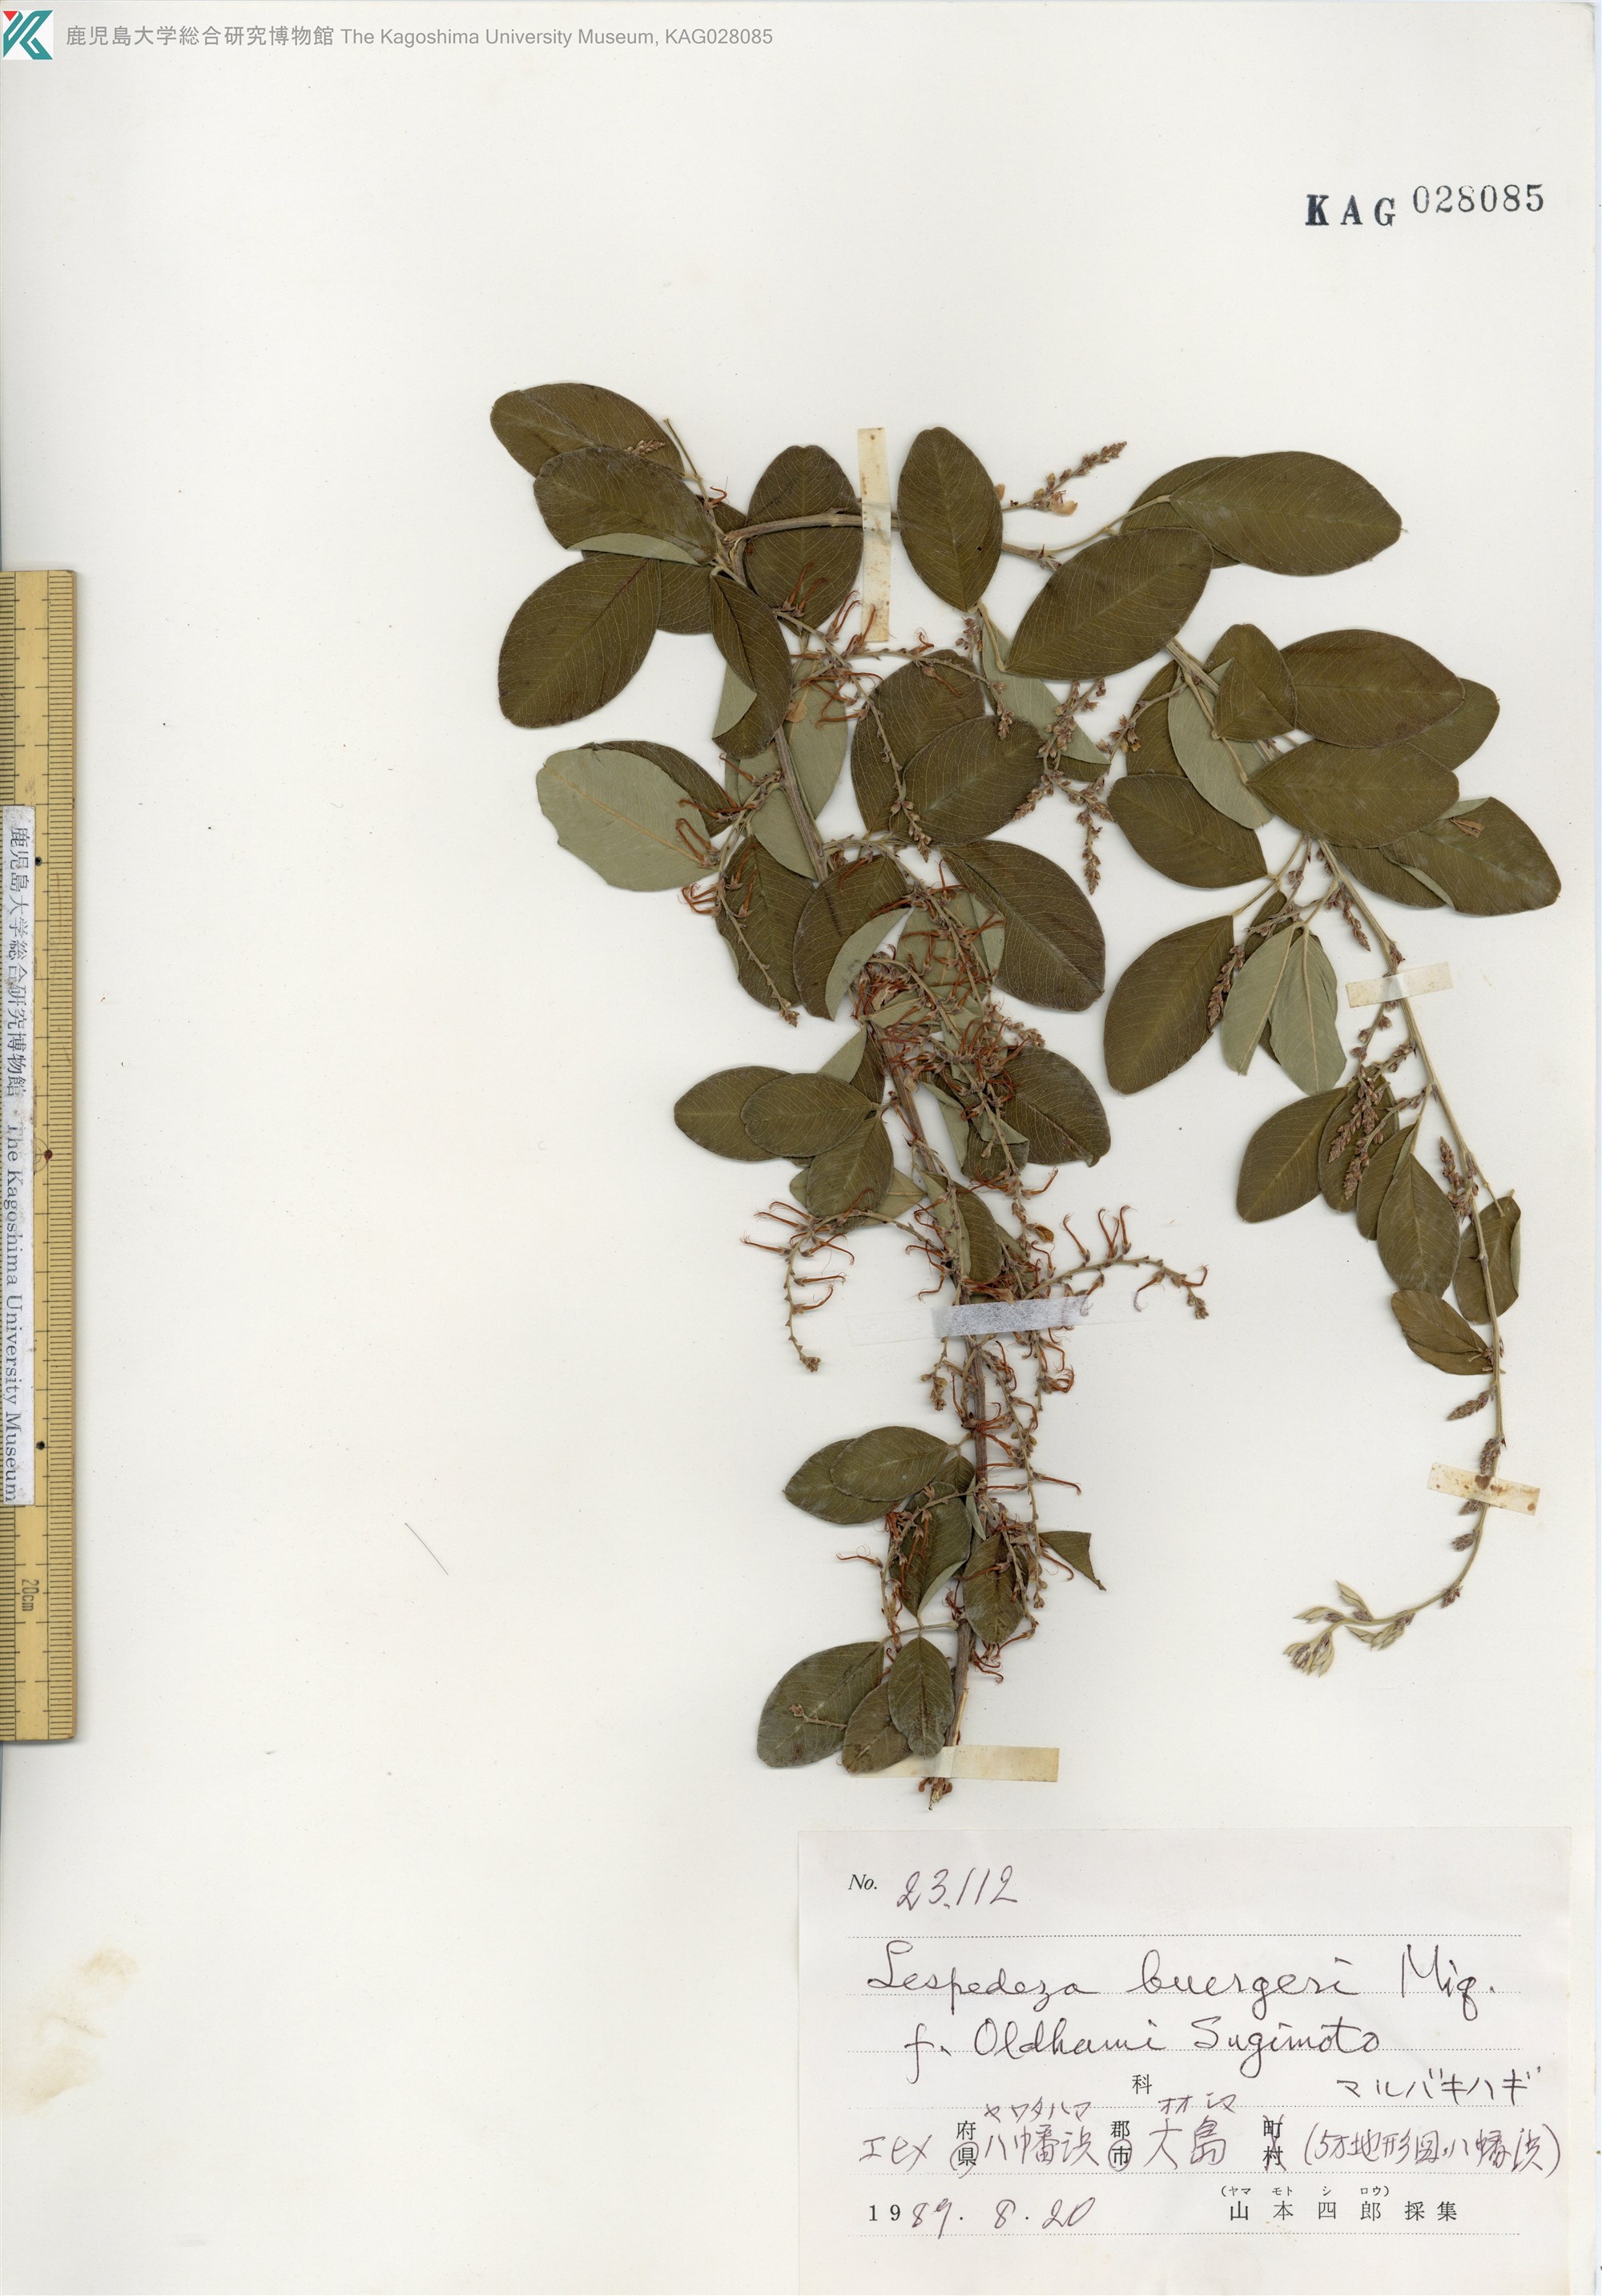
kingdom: Plantae
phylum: Tracheophyta
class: Magnoliopsida
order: Fabales
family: Fabaceae
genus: Lespedeza
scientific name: Lespedeza
